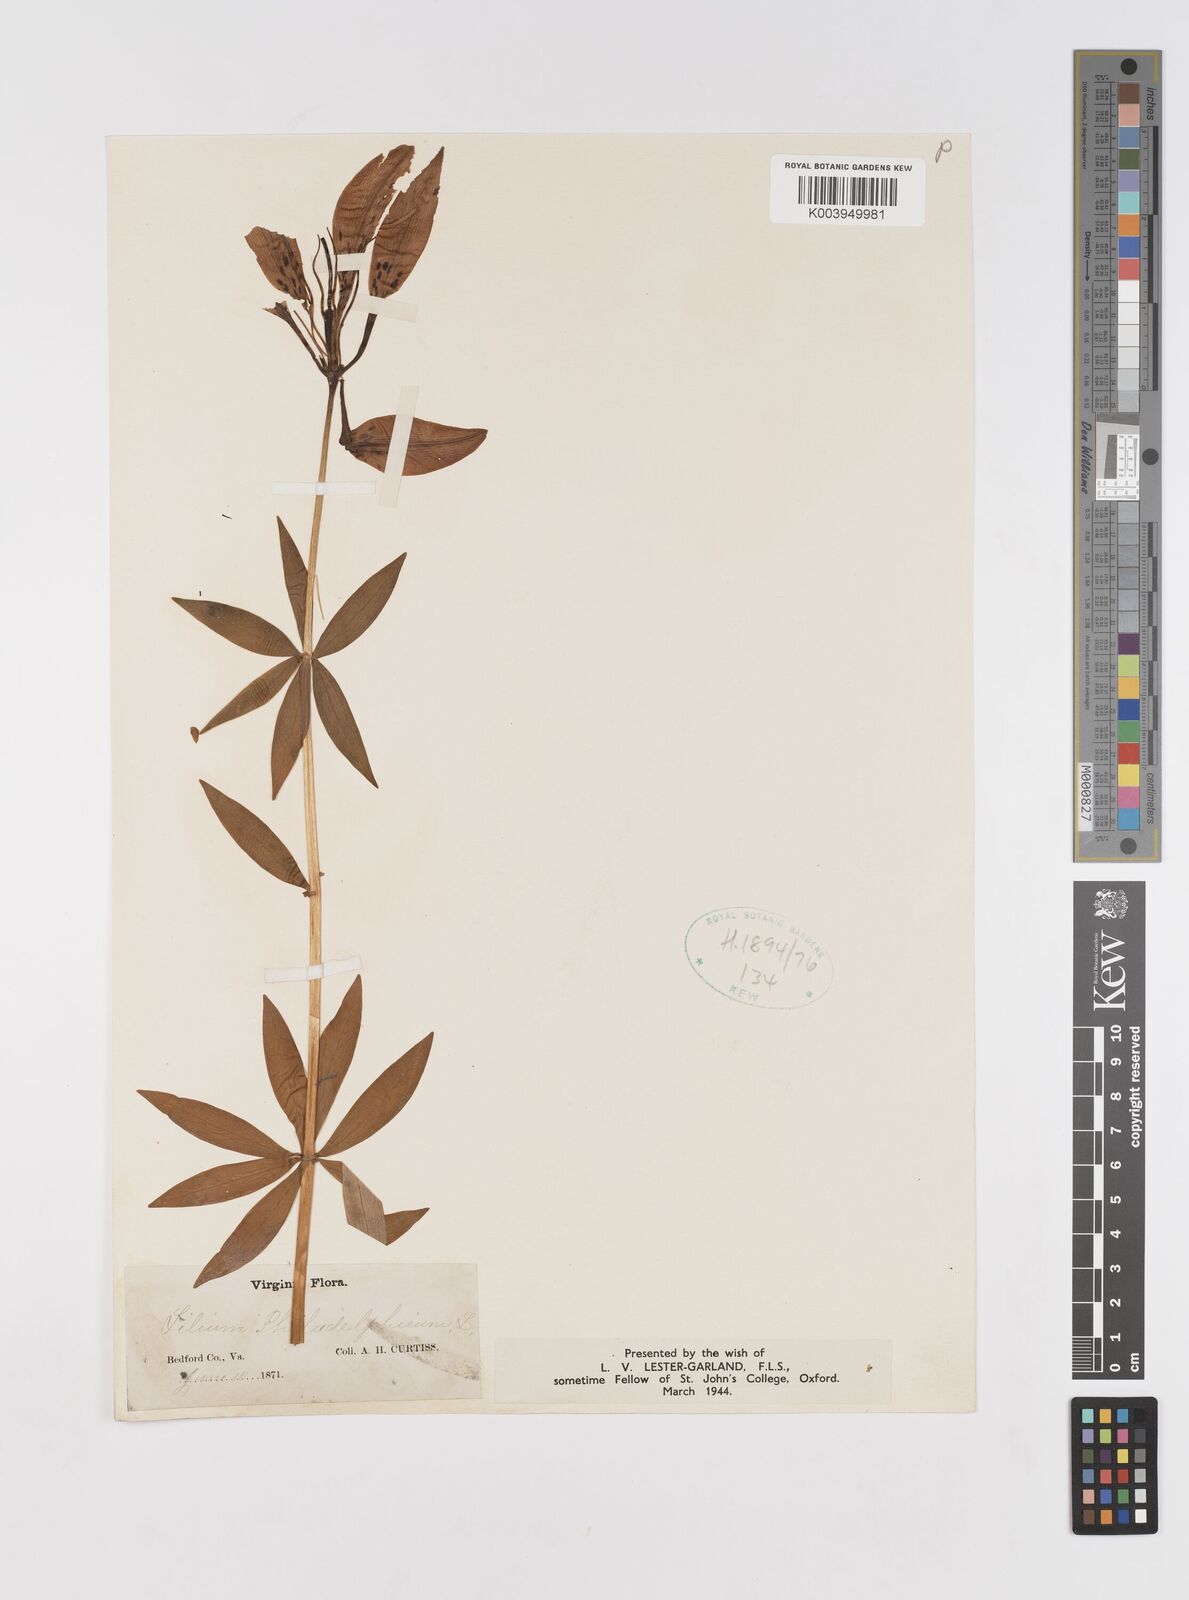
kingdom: Plantae
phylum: Tracheophyta
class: Liliopsida
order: Liliales
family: Liliaceae
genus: Lilium
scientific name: Lilium philadelphicum
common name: Red lily
